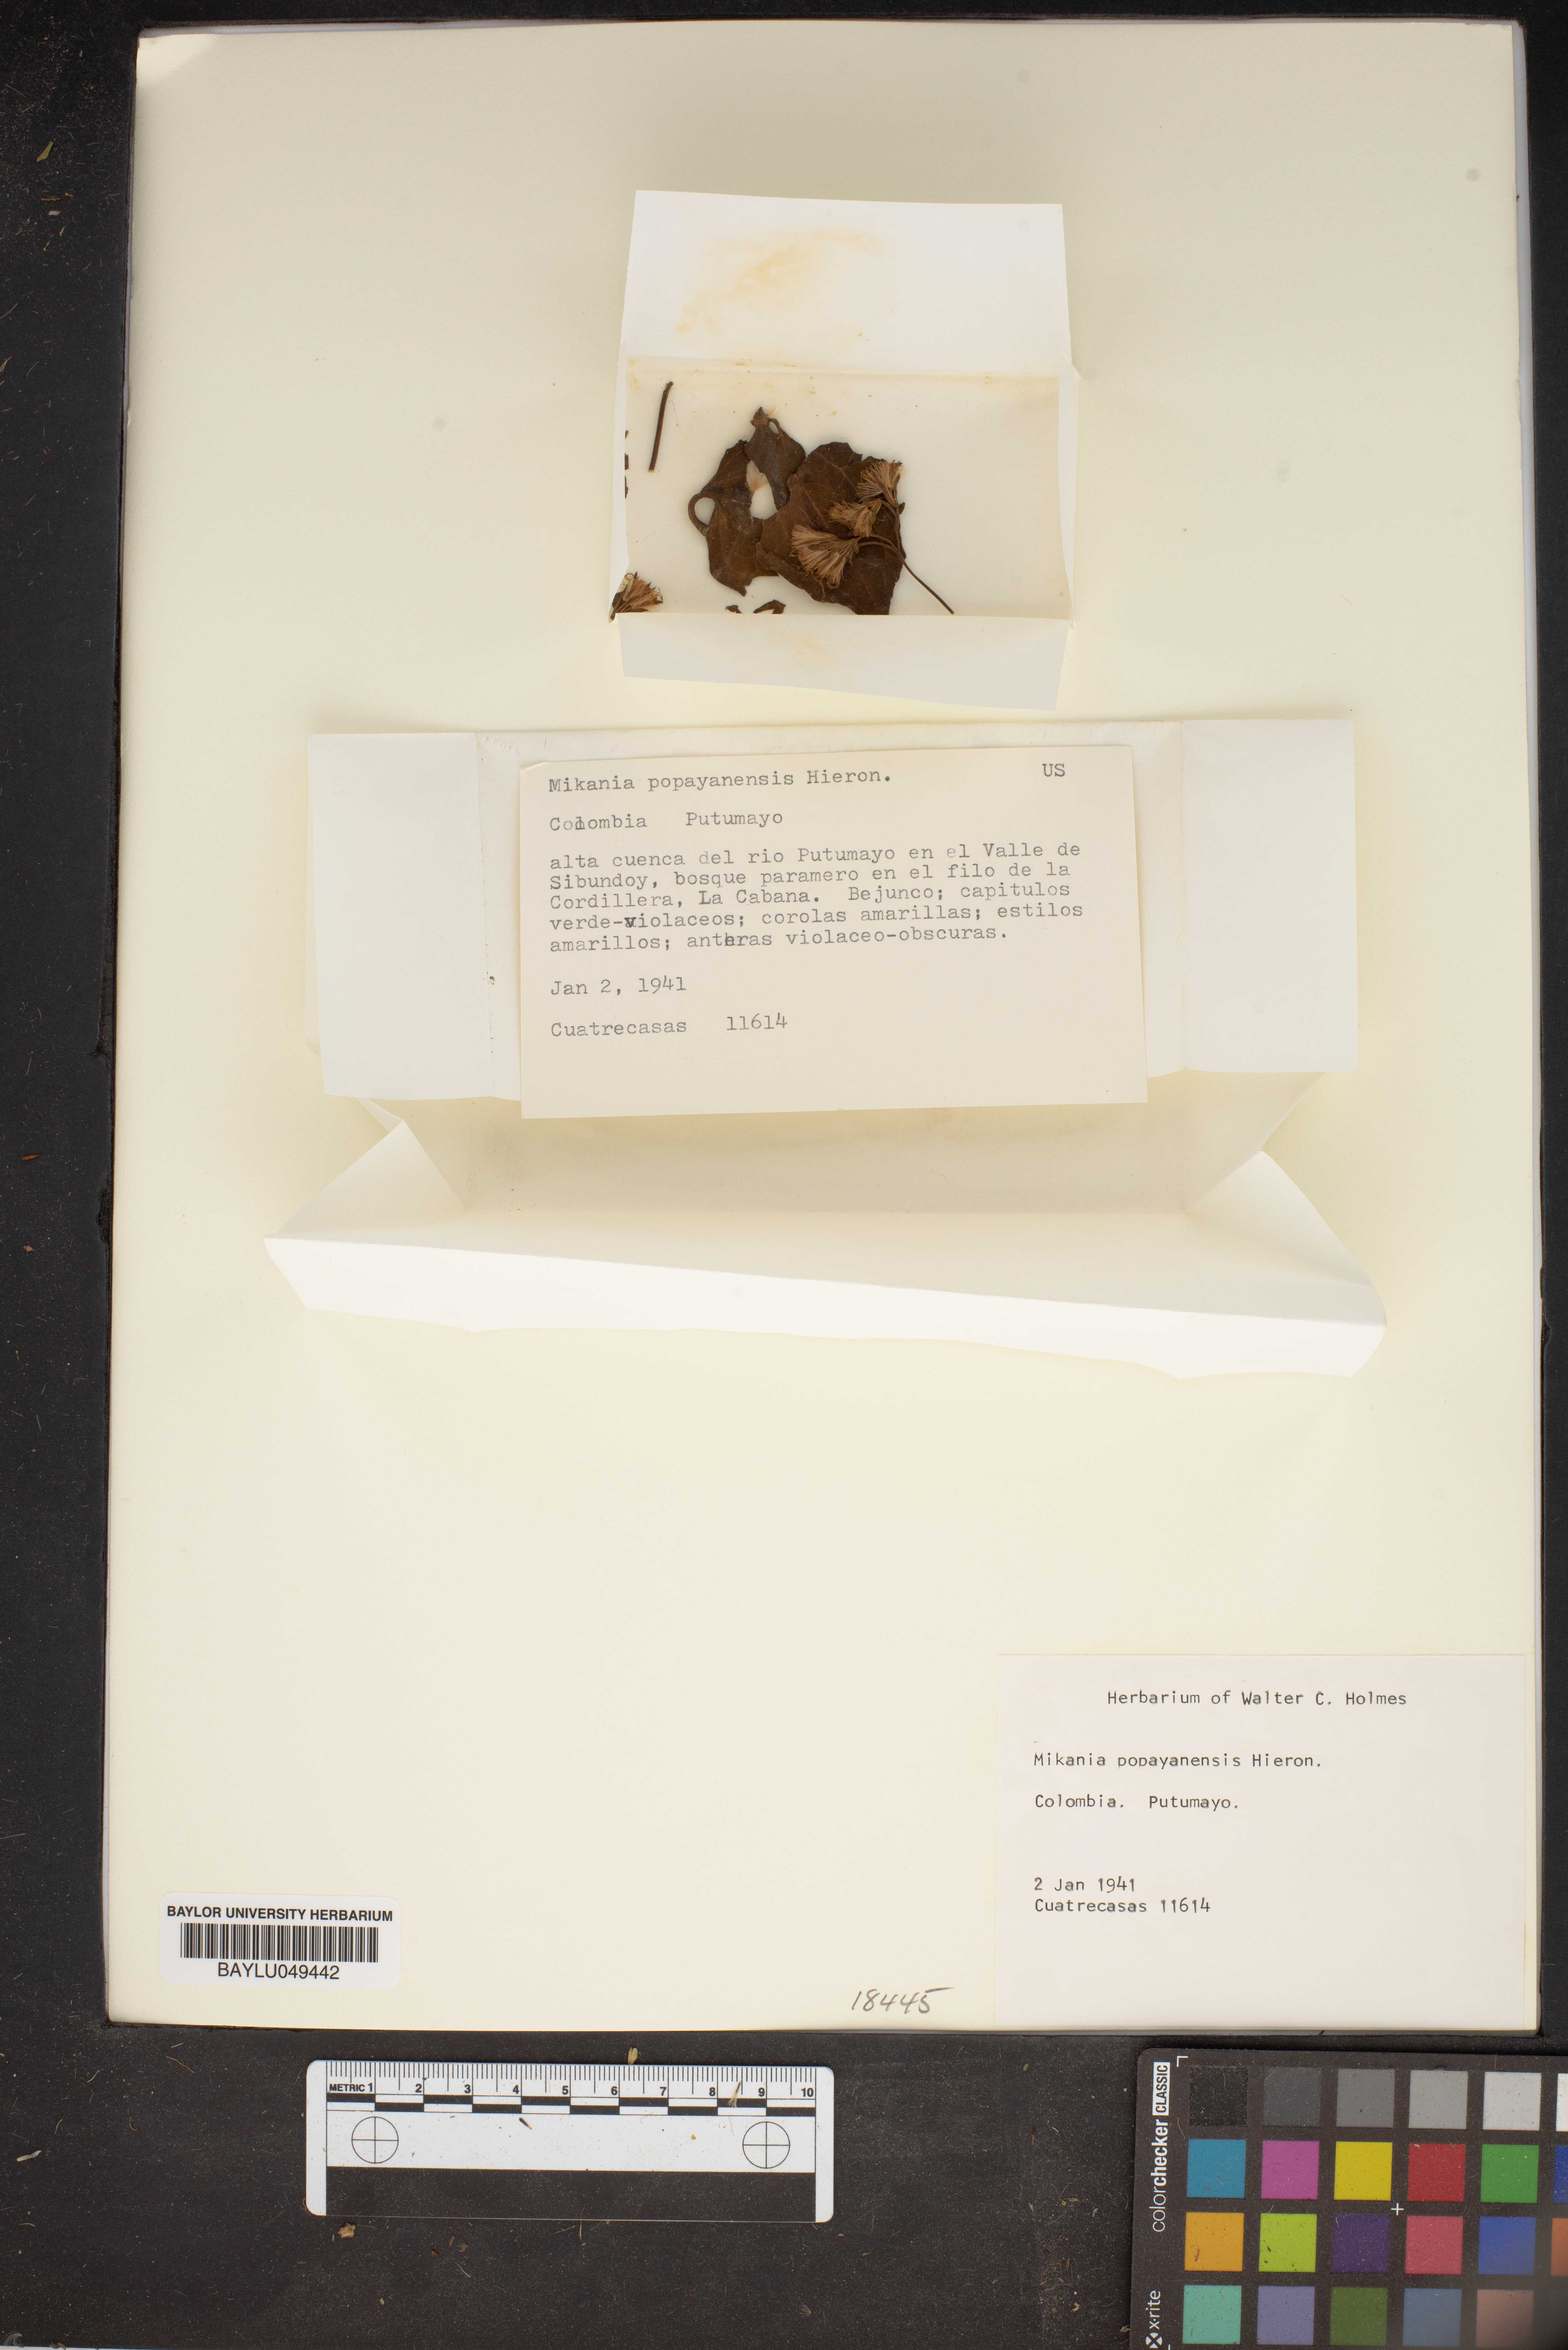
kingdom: Plantae
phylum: Tracheophyta
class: Magnoliopsida
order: Asterales
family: Asteraceae
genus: Mikania
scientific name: Mikania popayanensis
